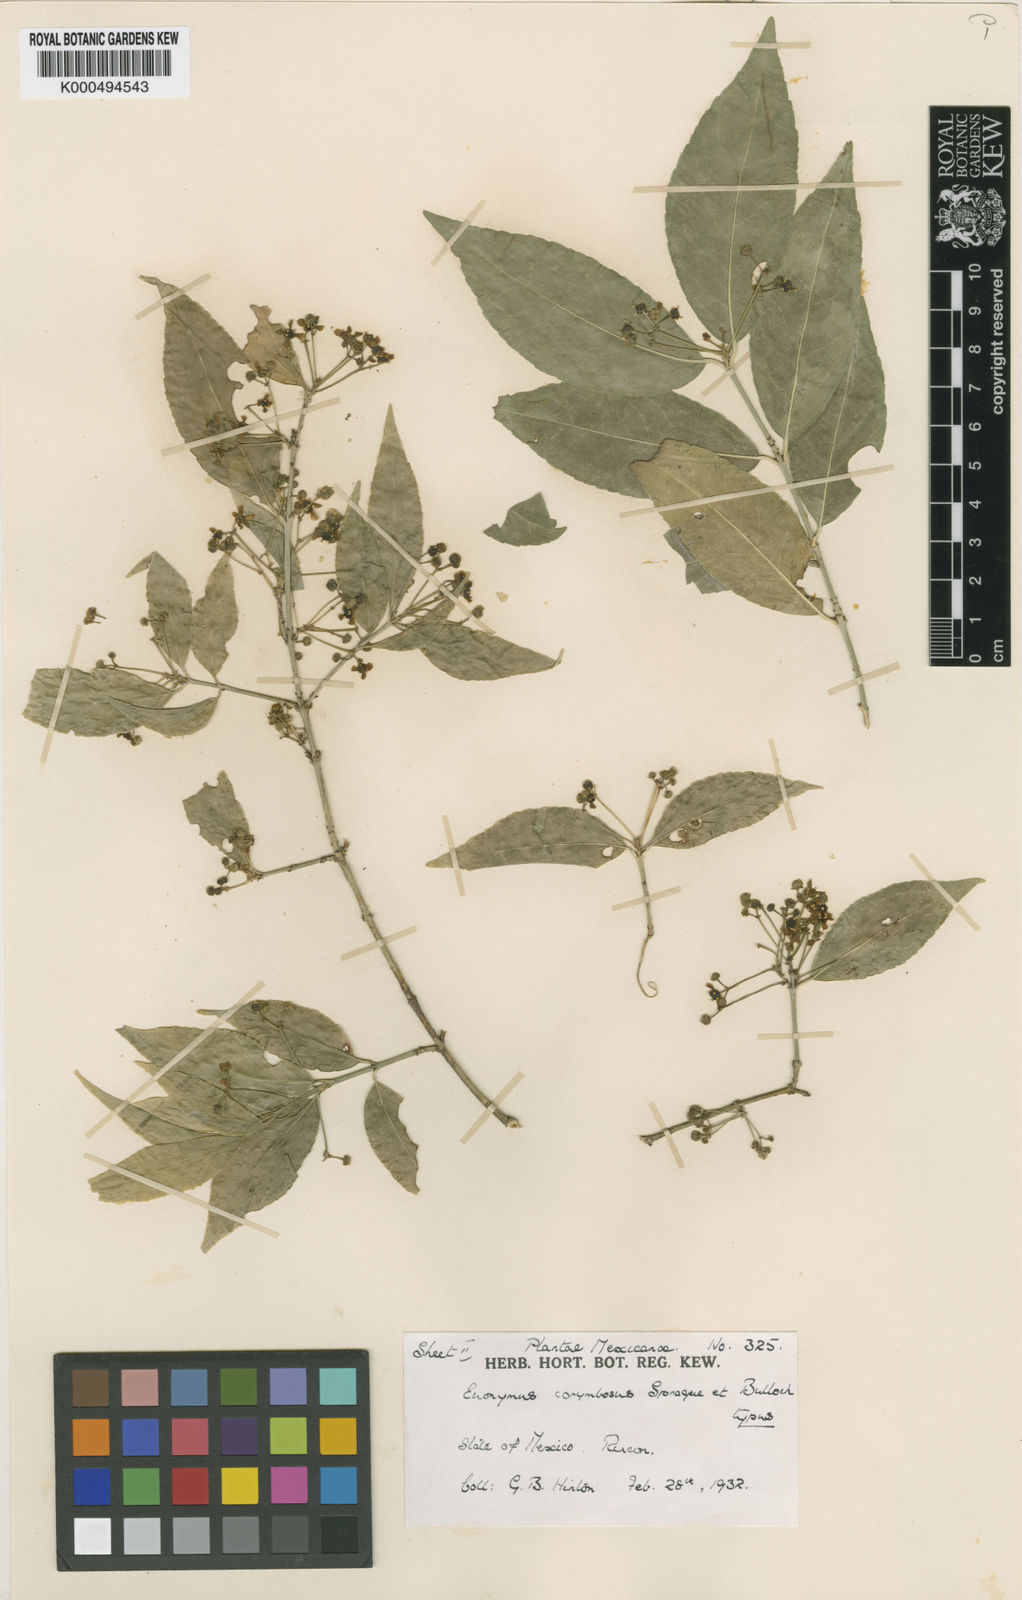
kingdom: Plantae
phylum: Tracheophyta
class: Magnoliopsida
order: Celastrales
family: Celastraceae
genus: Euonymus
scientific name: Euonymus corymbosus
